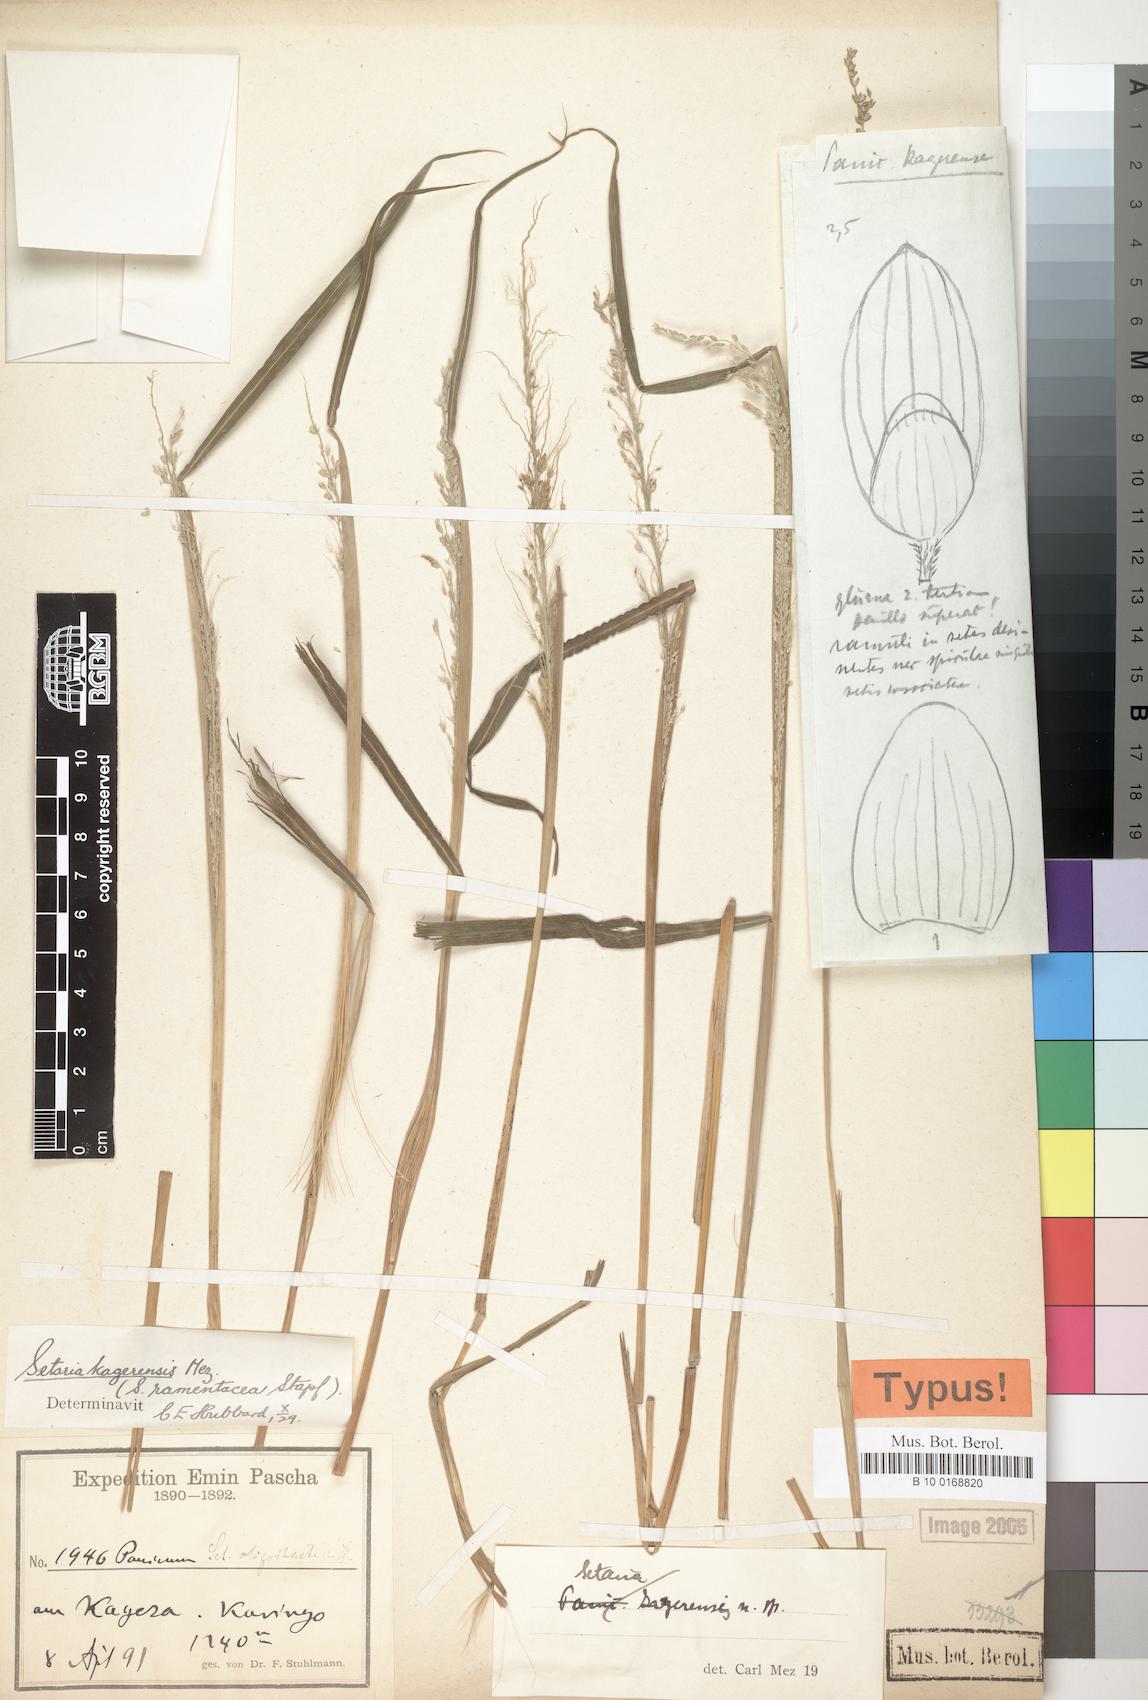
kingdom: Plantae
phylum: Tracheophyta
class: Liliopsida
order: Poales
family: Poaceae
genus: Setaria
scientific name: Setaria kagerensis
